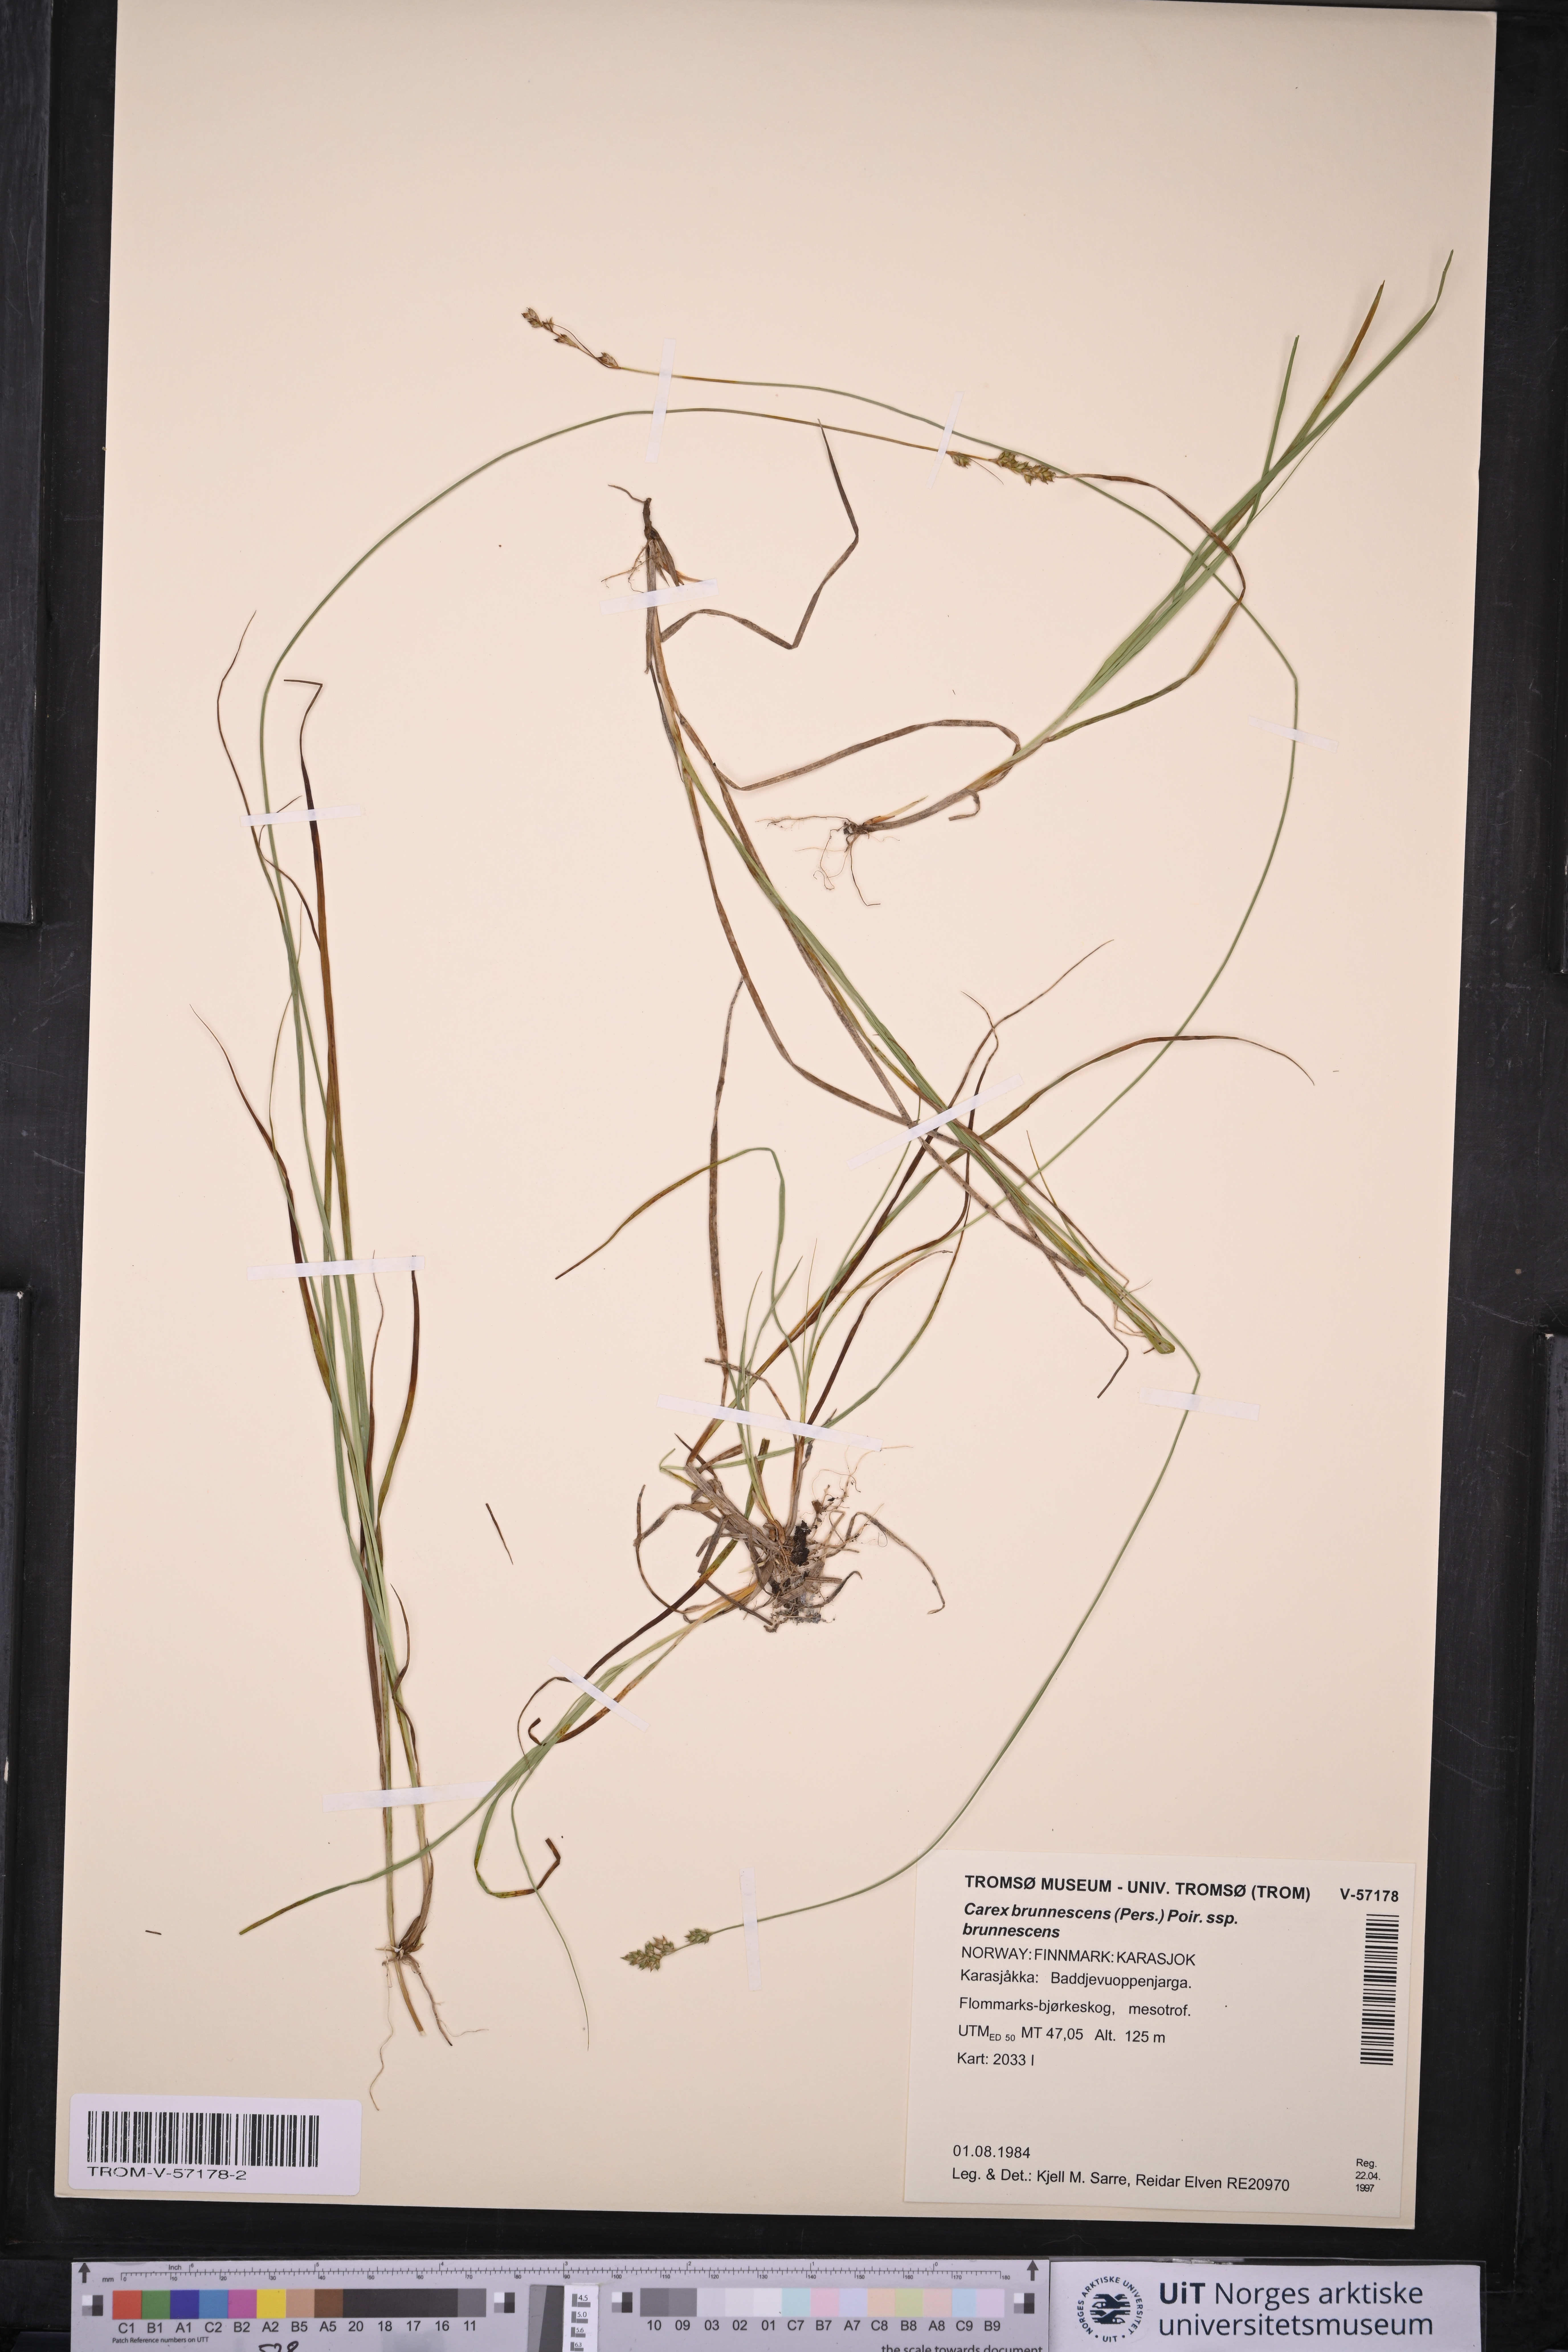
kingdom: Plantae
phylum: Tracheophyta
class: Liliopsida
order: Poales
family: Cyperaceae
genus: Carex
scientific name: Carex brunnescens
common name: Brown sedge
